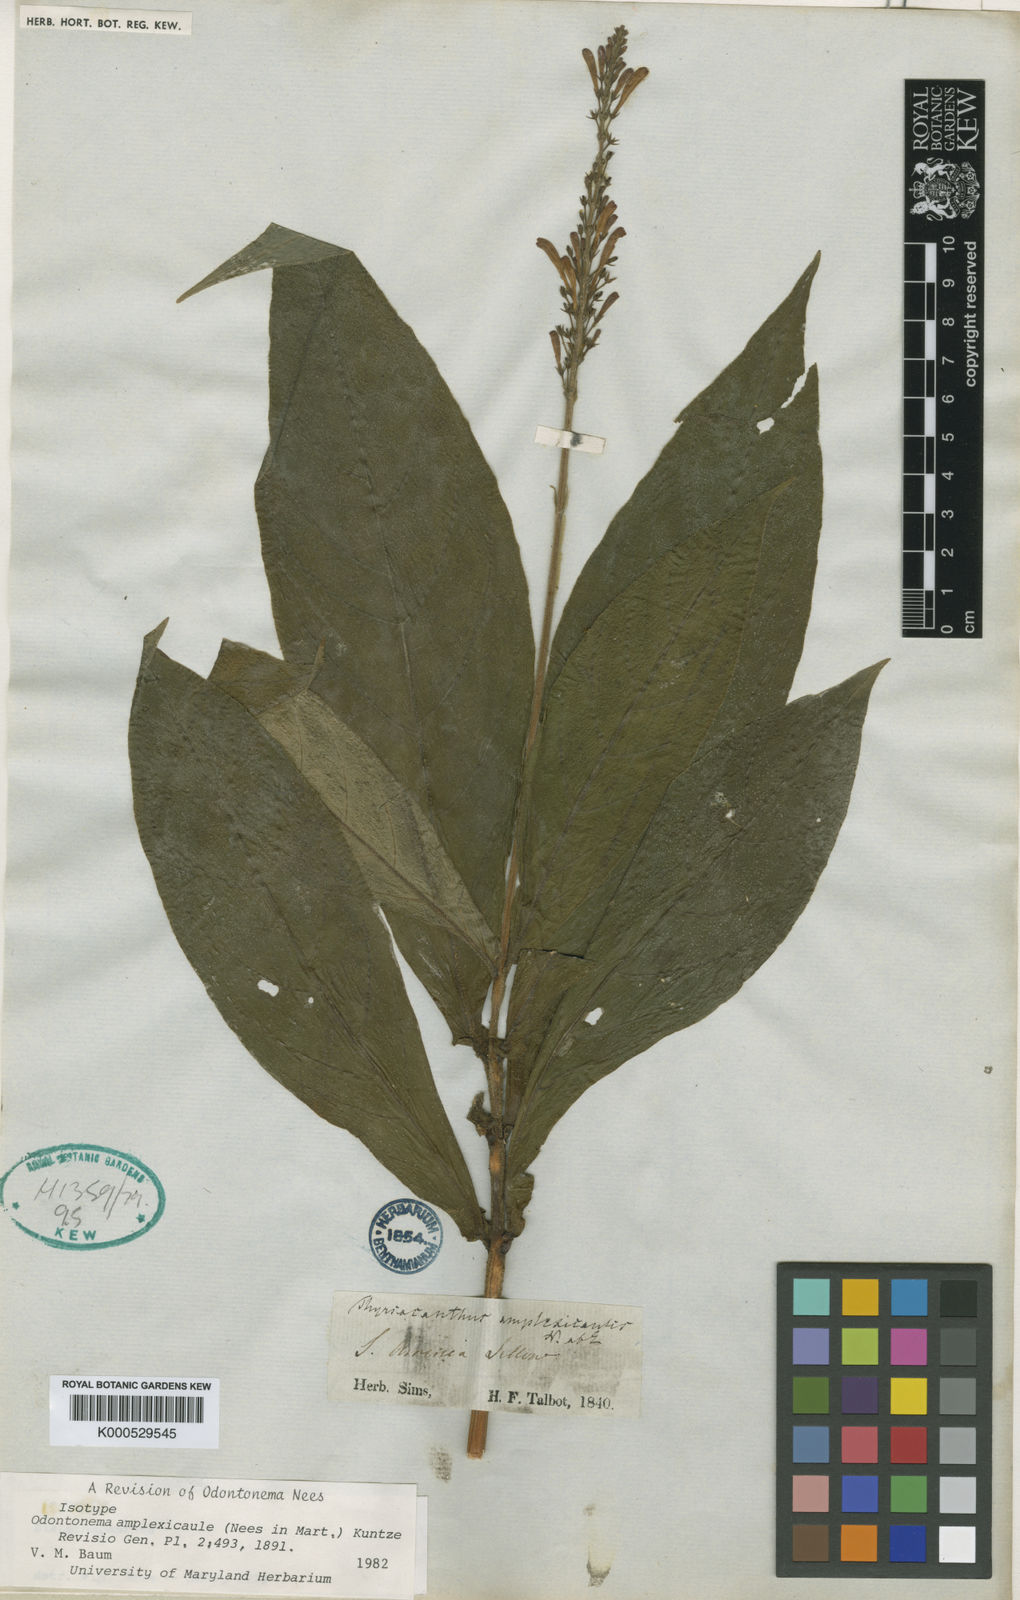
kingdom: Plantae
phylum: Tracheophyta
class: Magnoliopsida
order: Lamiales
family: Acanthaceae
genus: Odontonema
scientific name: Odontonema amplexicaule
